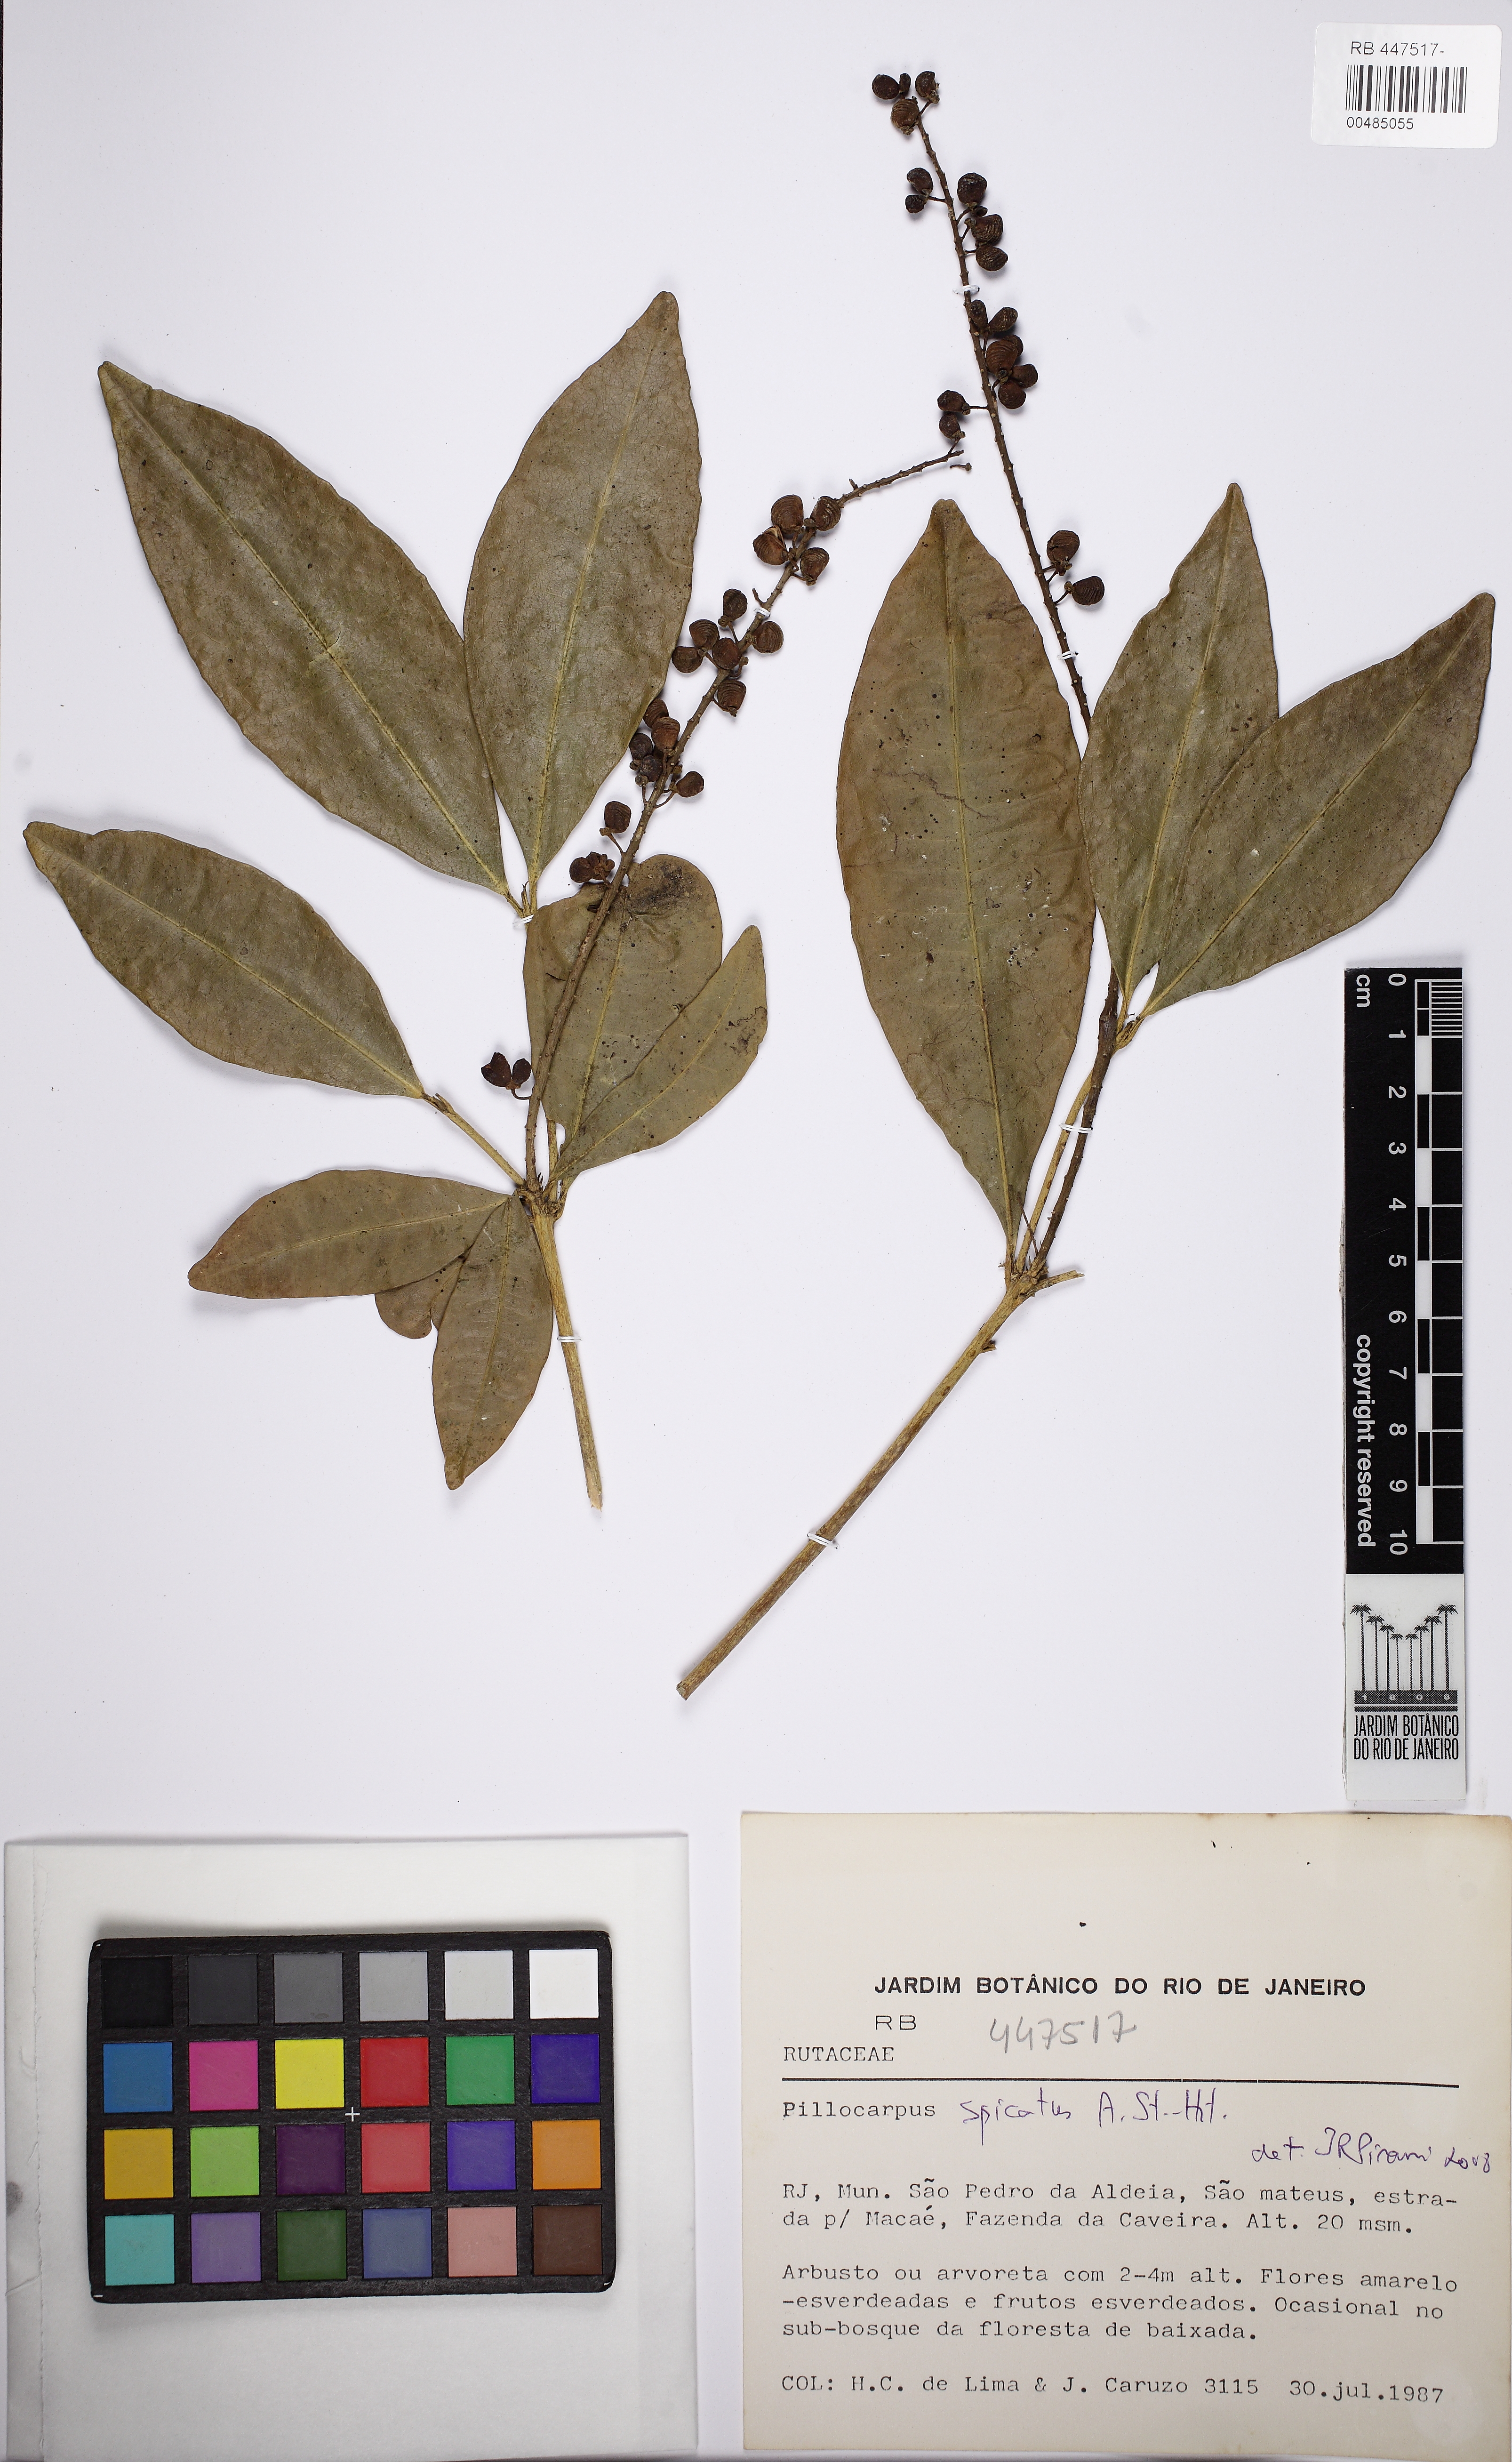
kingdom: Plantae
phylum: Tracheophyta
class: Magnoliopsida
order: Sapindales
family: Rutaceae
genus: Pilocarpus
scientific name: Pilocarpus spicatus
